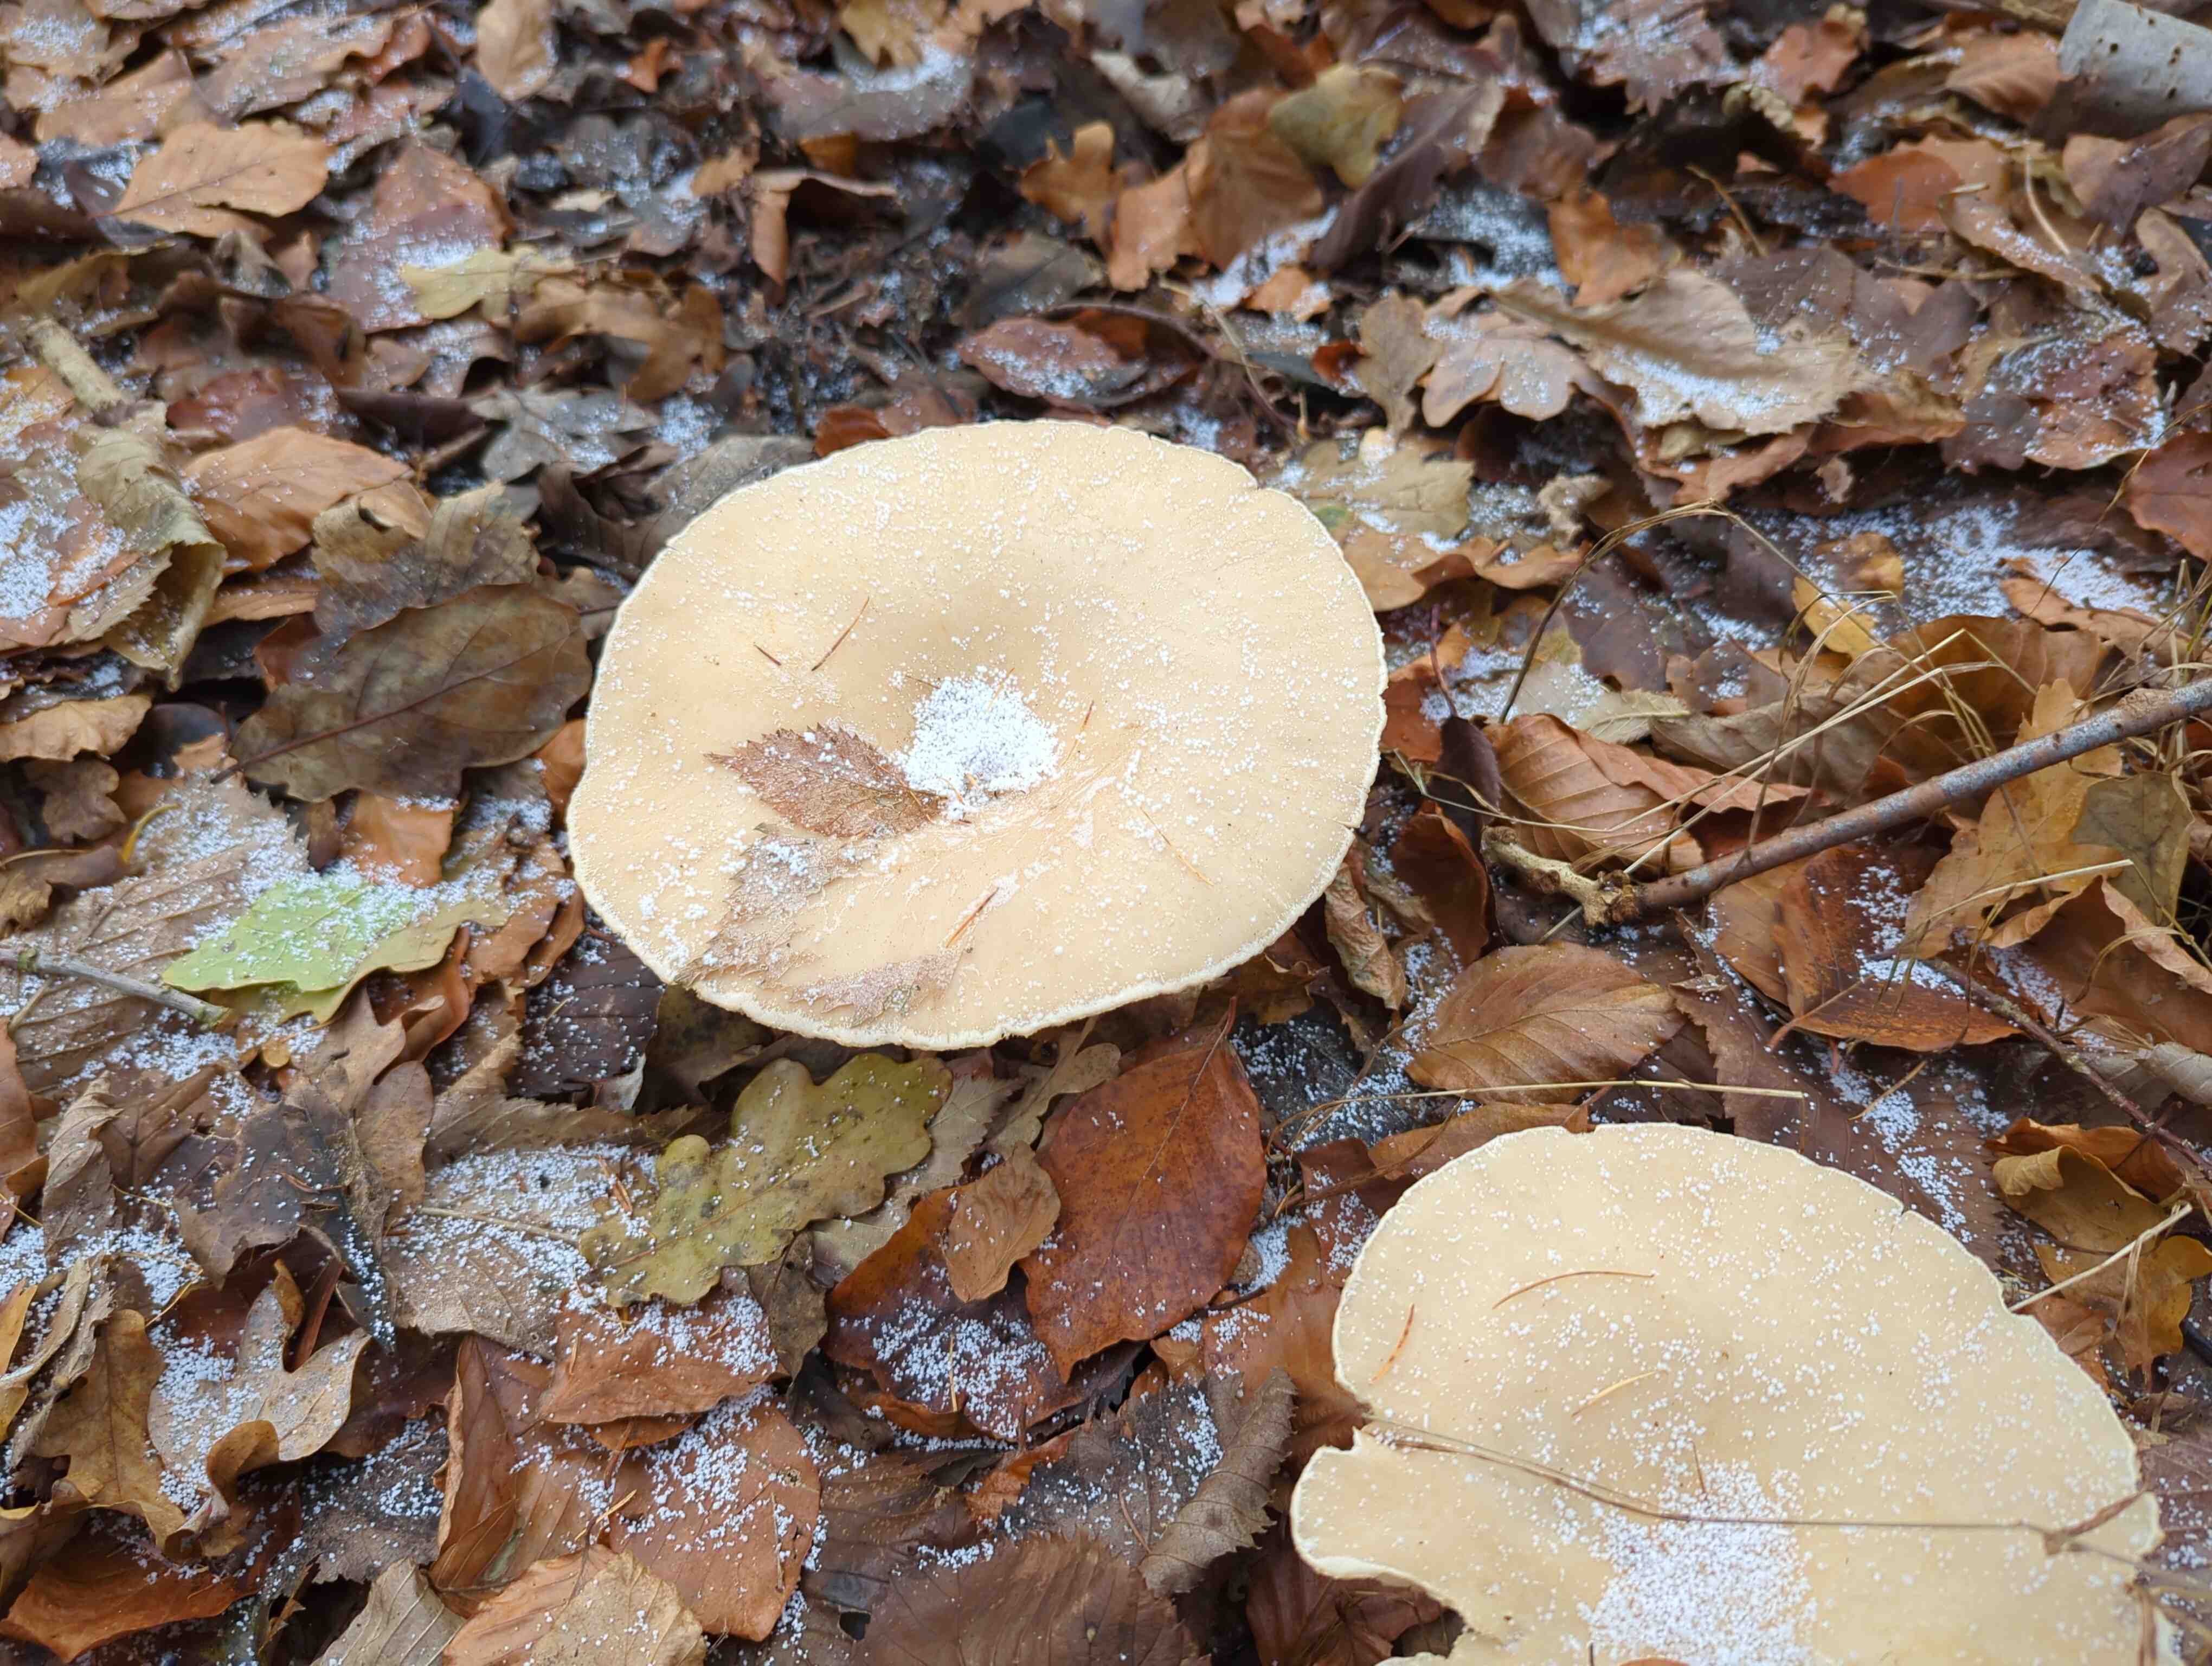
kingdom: Fungi
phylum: Basidiomycota
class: Agaricomycetes
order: Agaricales
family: Tricholomataceae
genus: Infundibulicybe
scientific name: Infundibulicybe geotropa
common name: stor tragthat
